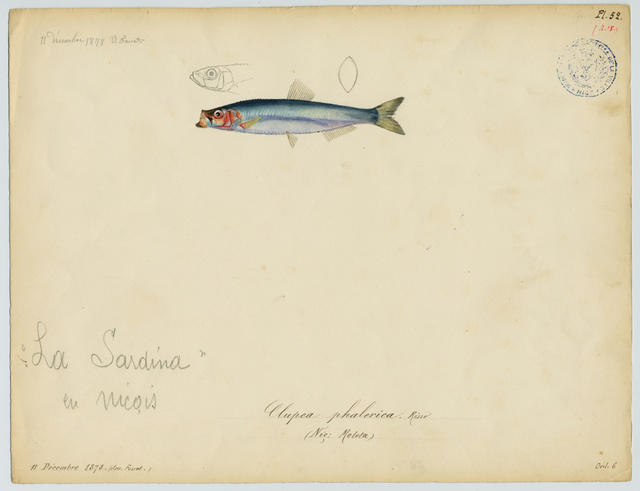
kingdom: Animalia
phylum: Chordata
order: Clupeiformes
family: Clupeidae
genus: Sprattus
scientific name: Sprattus sprattus
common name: Sprat
